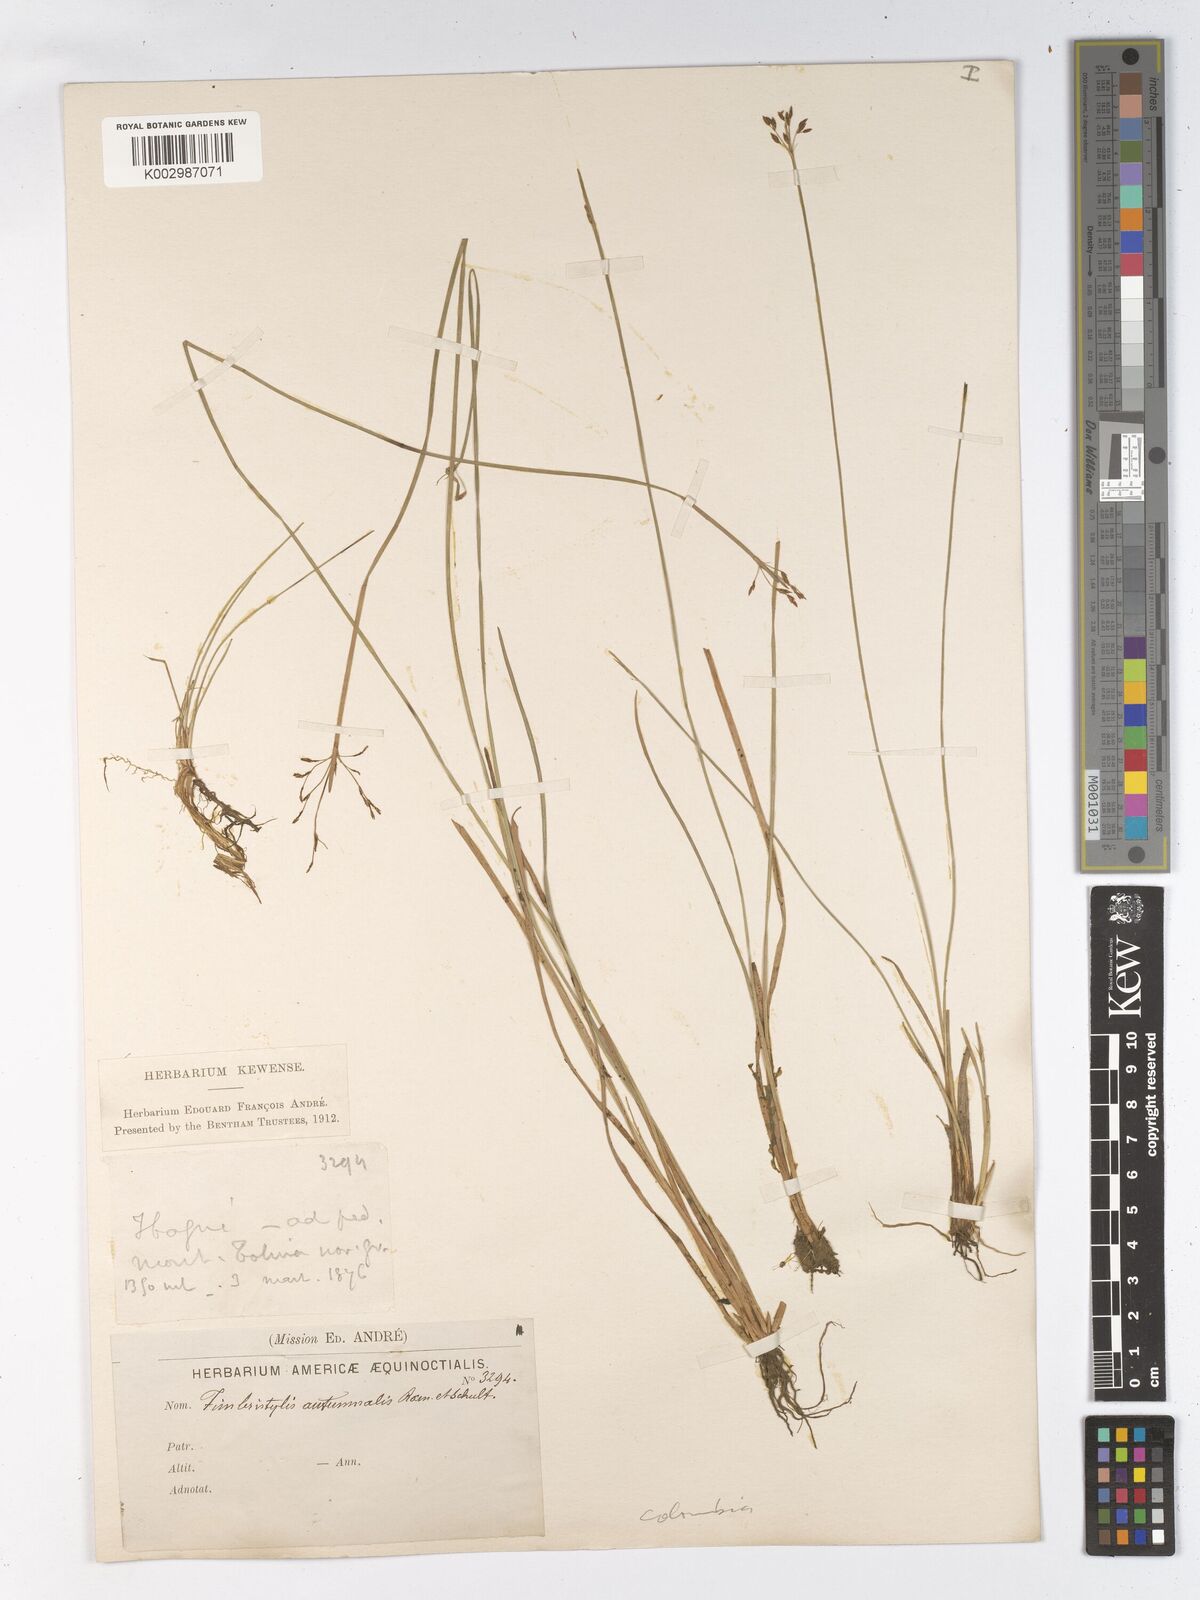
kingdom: Plantae
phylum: Tracheophyta
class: Liliopsida
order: Poales
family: Cyperaceae
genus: Fimbristylis
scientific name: Fimbristylis autumnalis
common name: Slender fimbristylis
